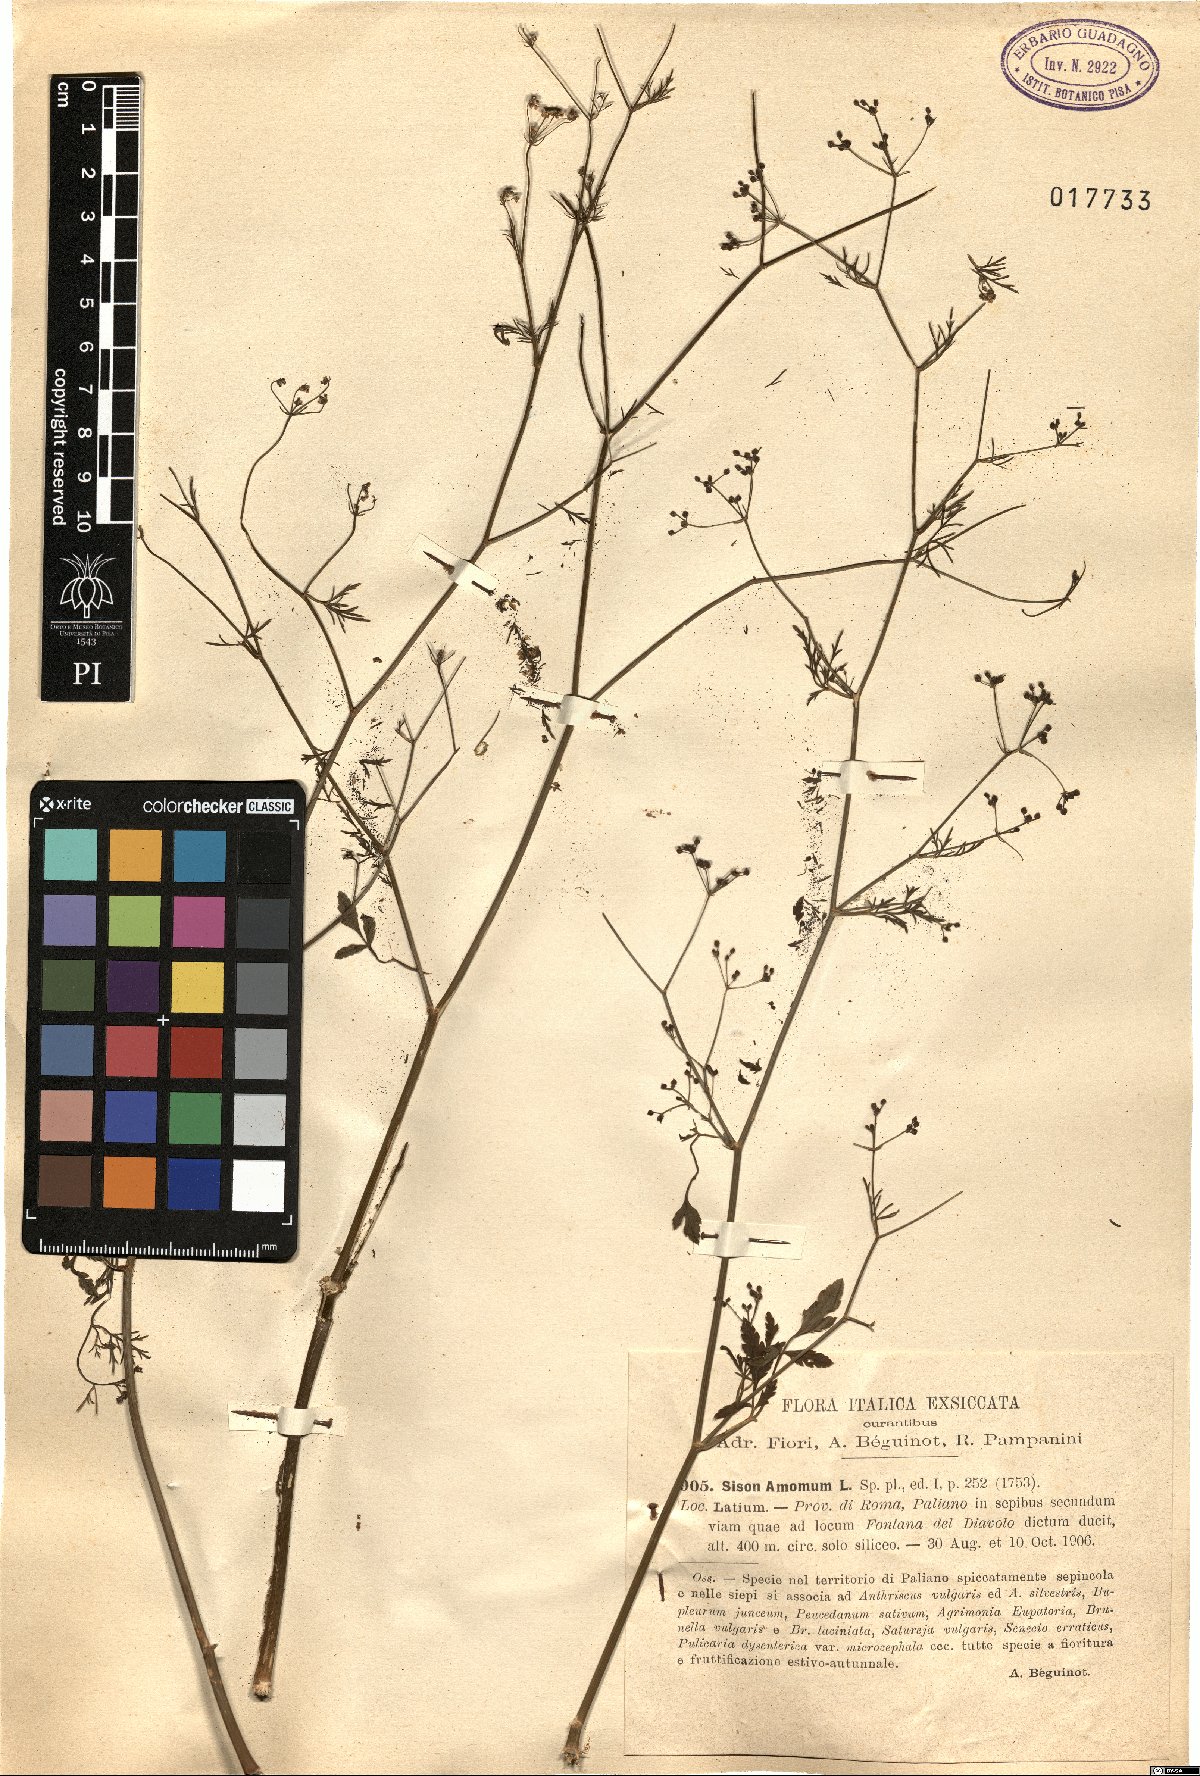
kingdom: Plantae
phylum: Tracheophyta
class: Magnoliopsida
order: Apiales
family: Apiaceae
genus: Sison
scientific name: Sison amomum
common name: Stone-parsley
